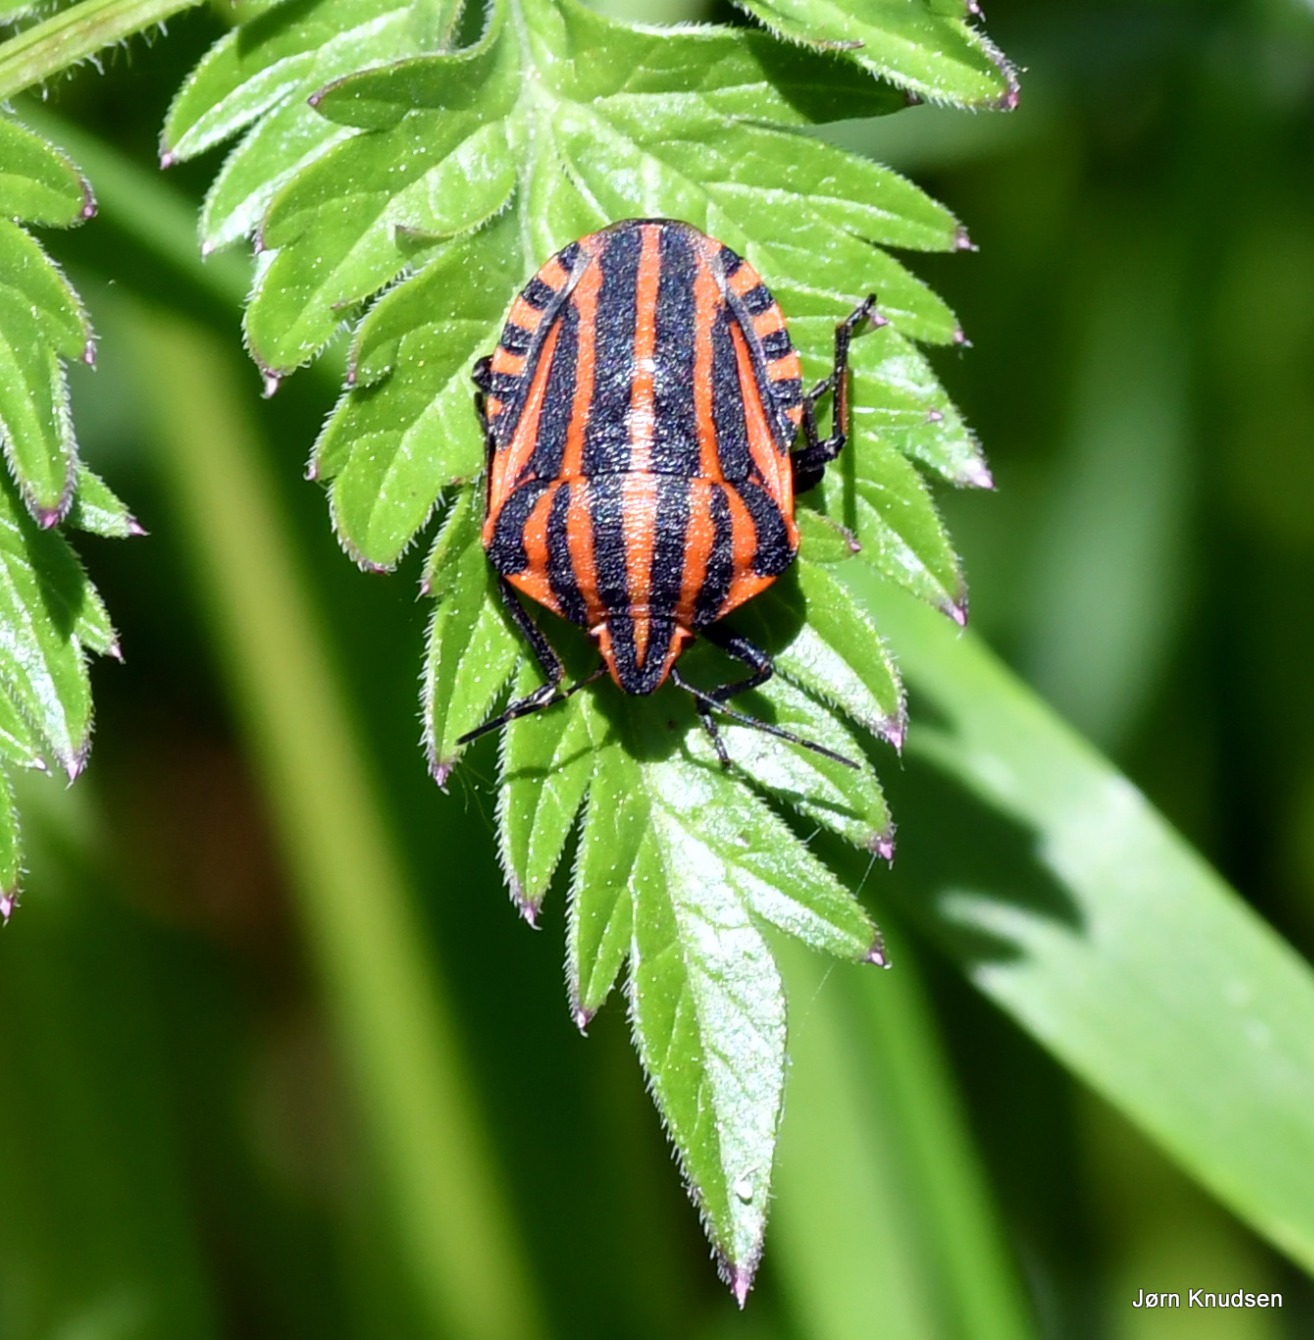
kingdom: Animalia
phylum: Arthropoda
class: Insecta
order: Hemiptera
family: Pentatomidae
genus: Graphosoma
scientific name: Graphosoma italicum
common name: Stribetæge
